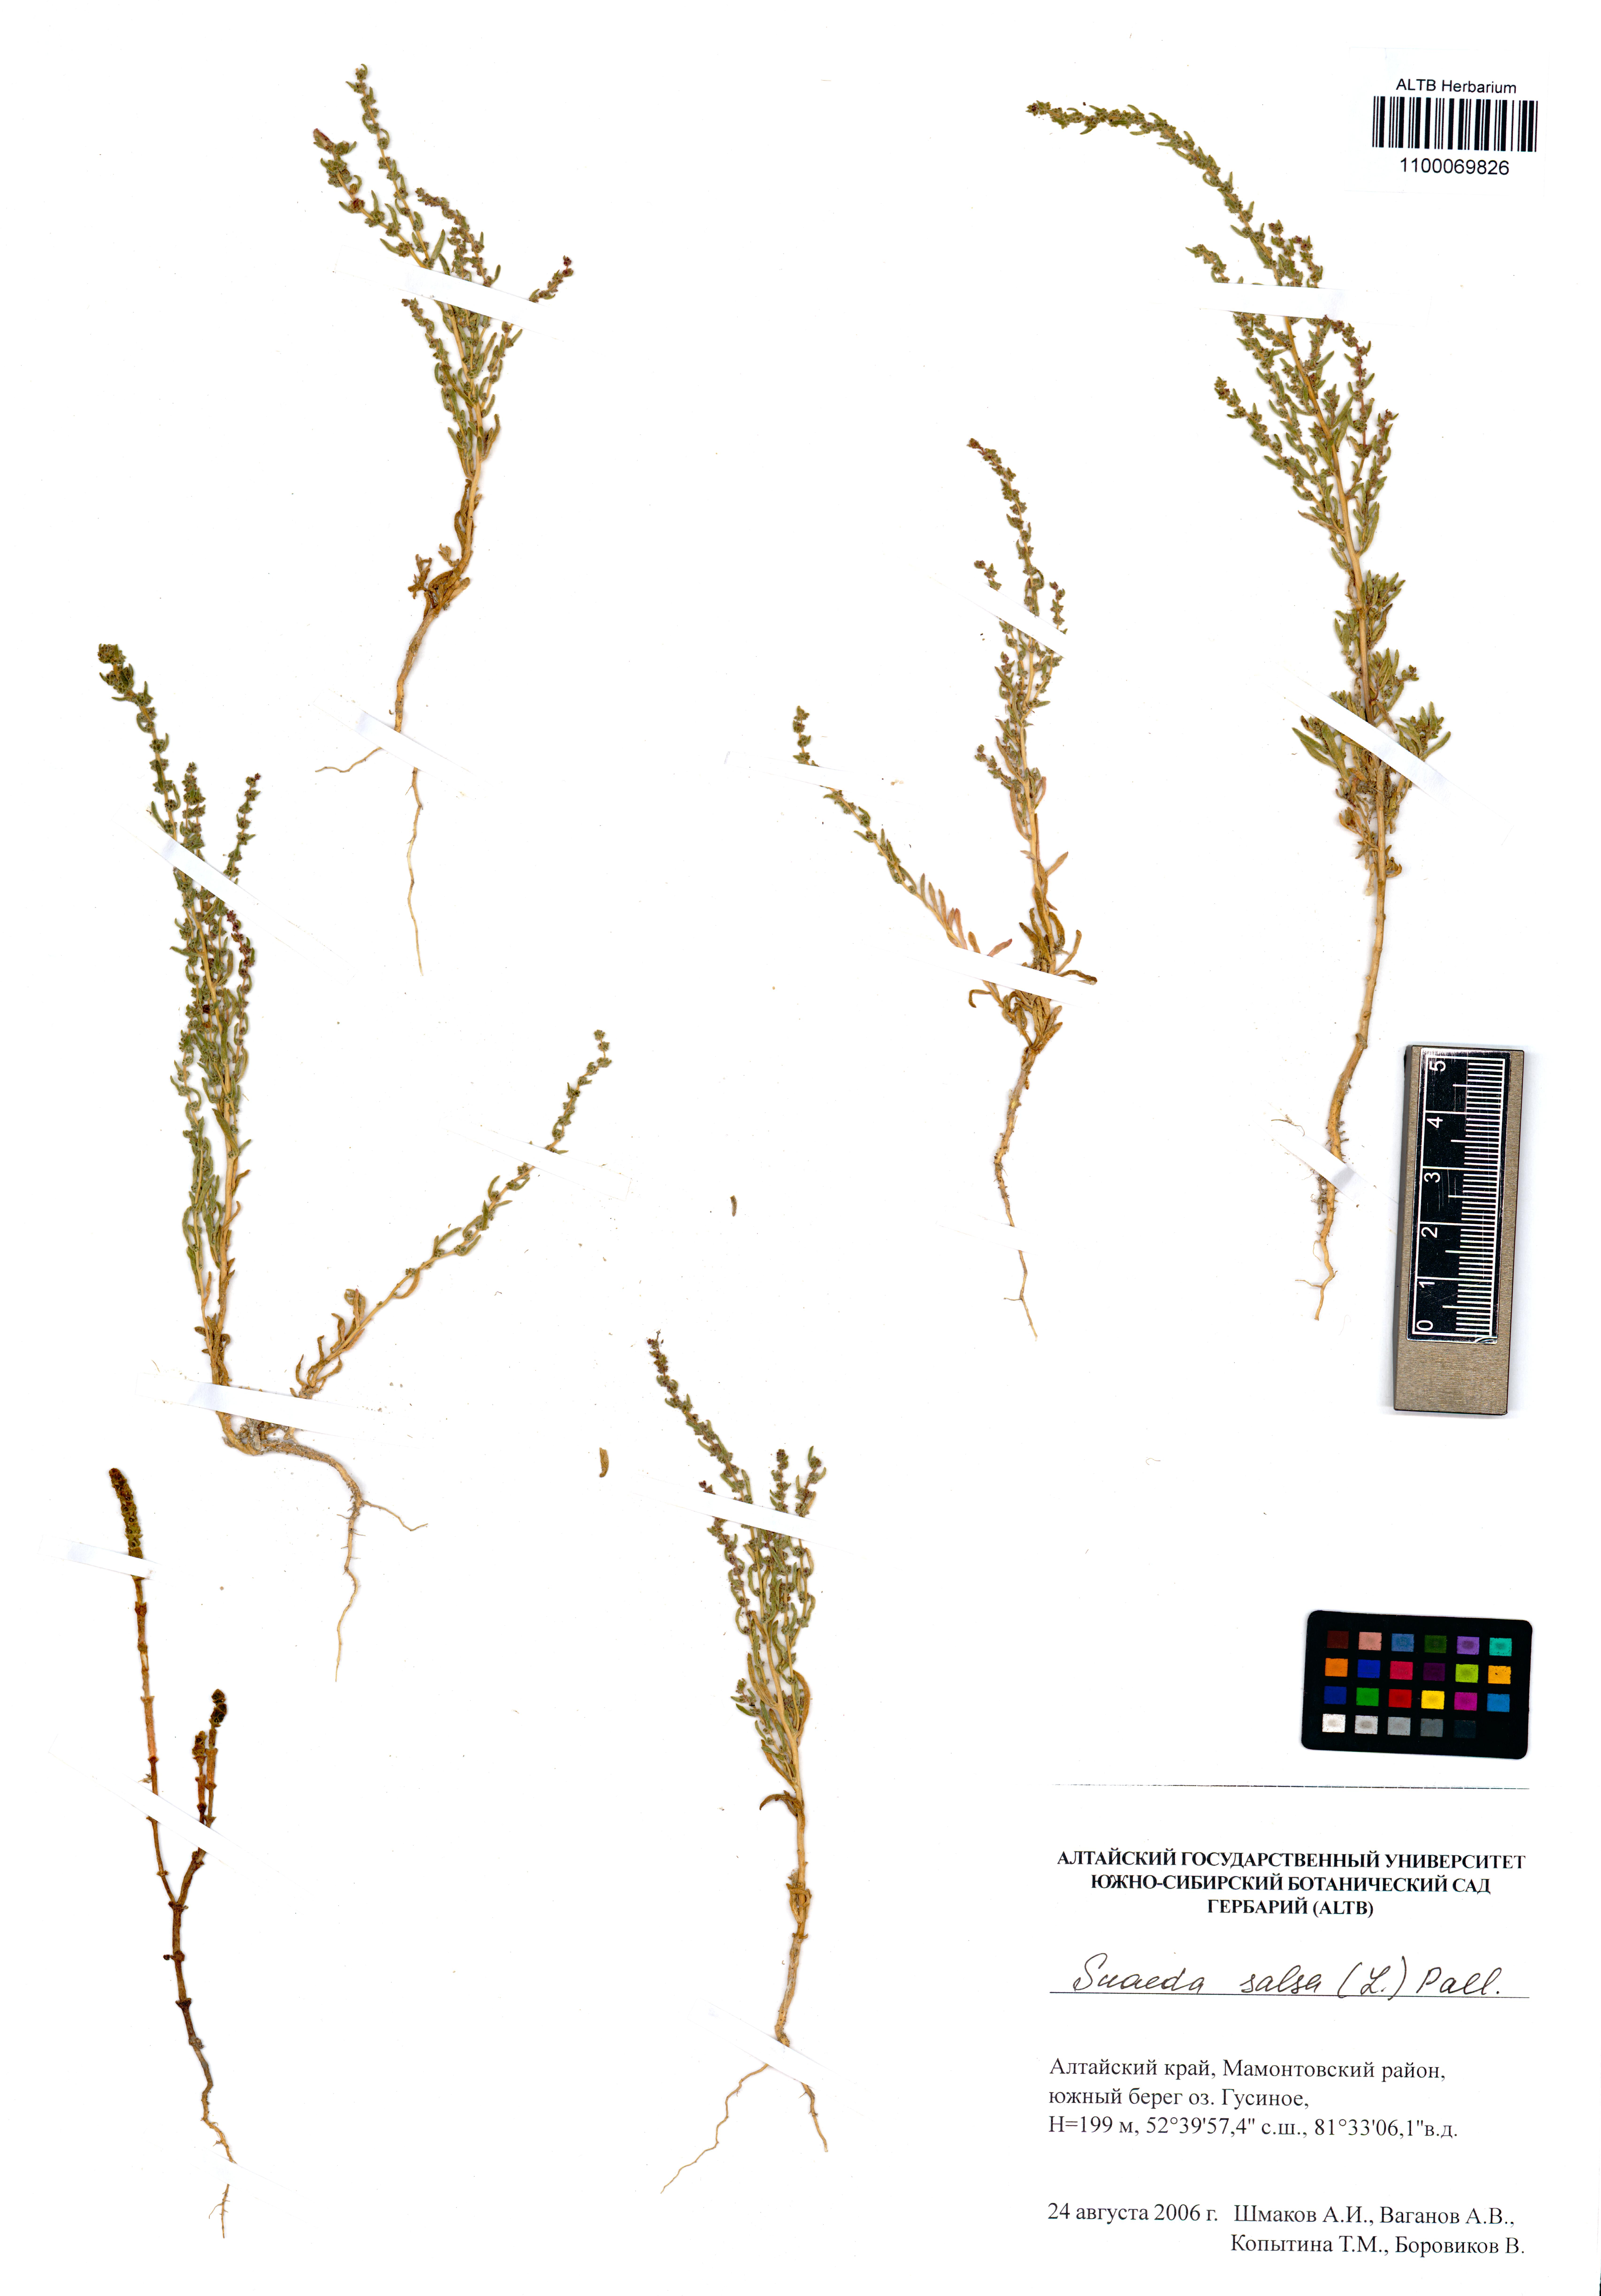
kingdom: Plantae
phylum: Tracheophyta
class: Magnoliopsida
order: Caryophyllales
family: Amaranthaceae
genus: Suaeda
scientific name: Suaeda salsa
